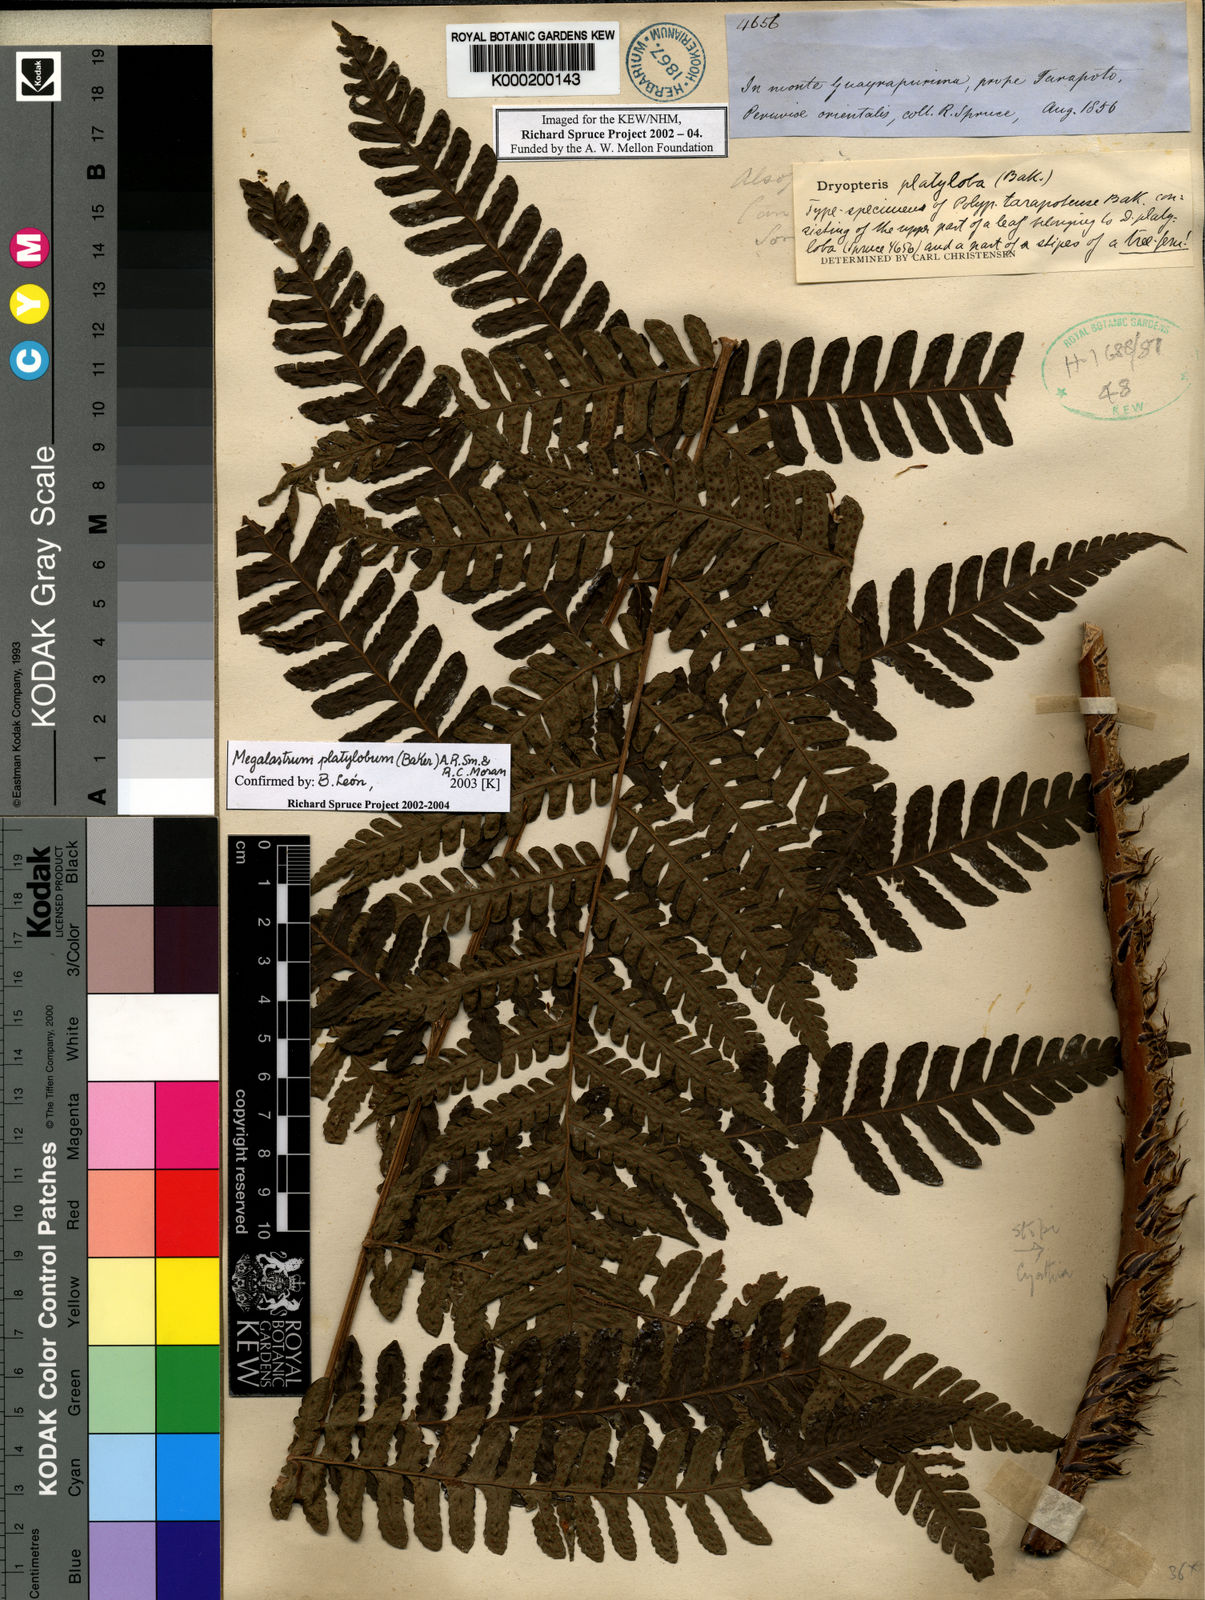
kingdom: Plantae
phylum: Tracheophyta
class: Polypodiopsida
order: Polypodiales
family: Dryopteridaceae
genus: Megalastrum
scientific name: Megalastrum platylobum
